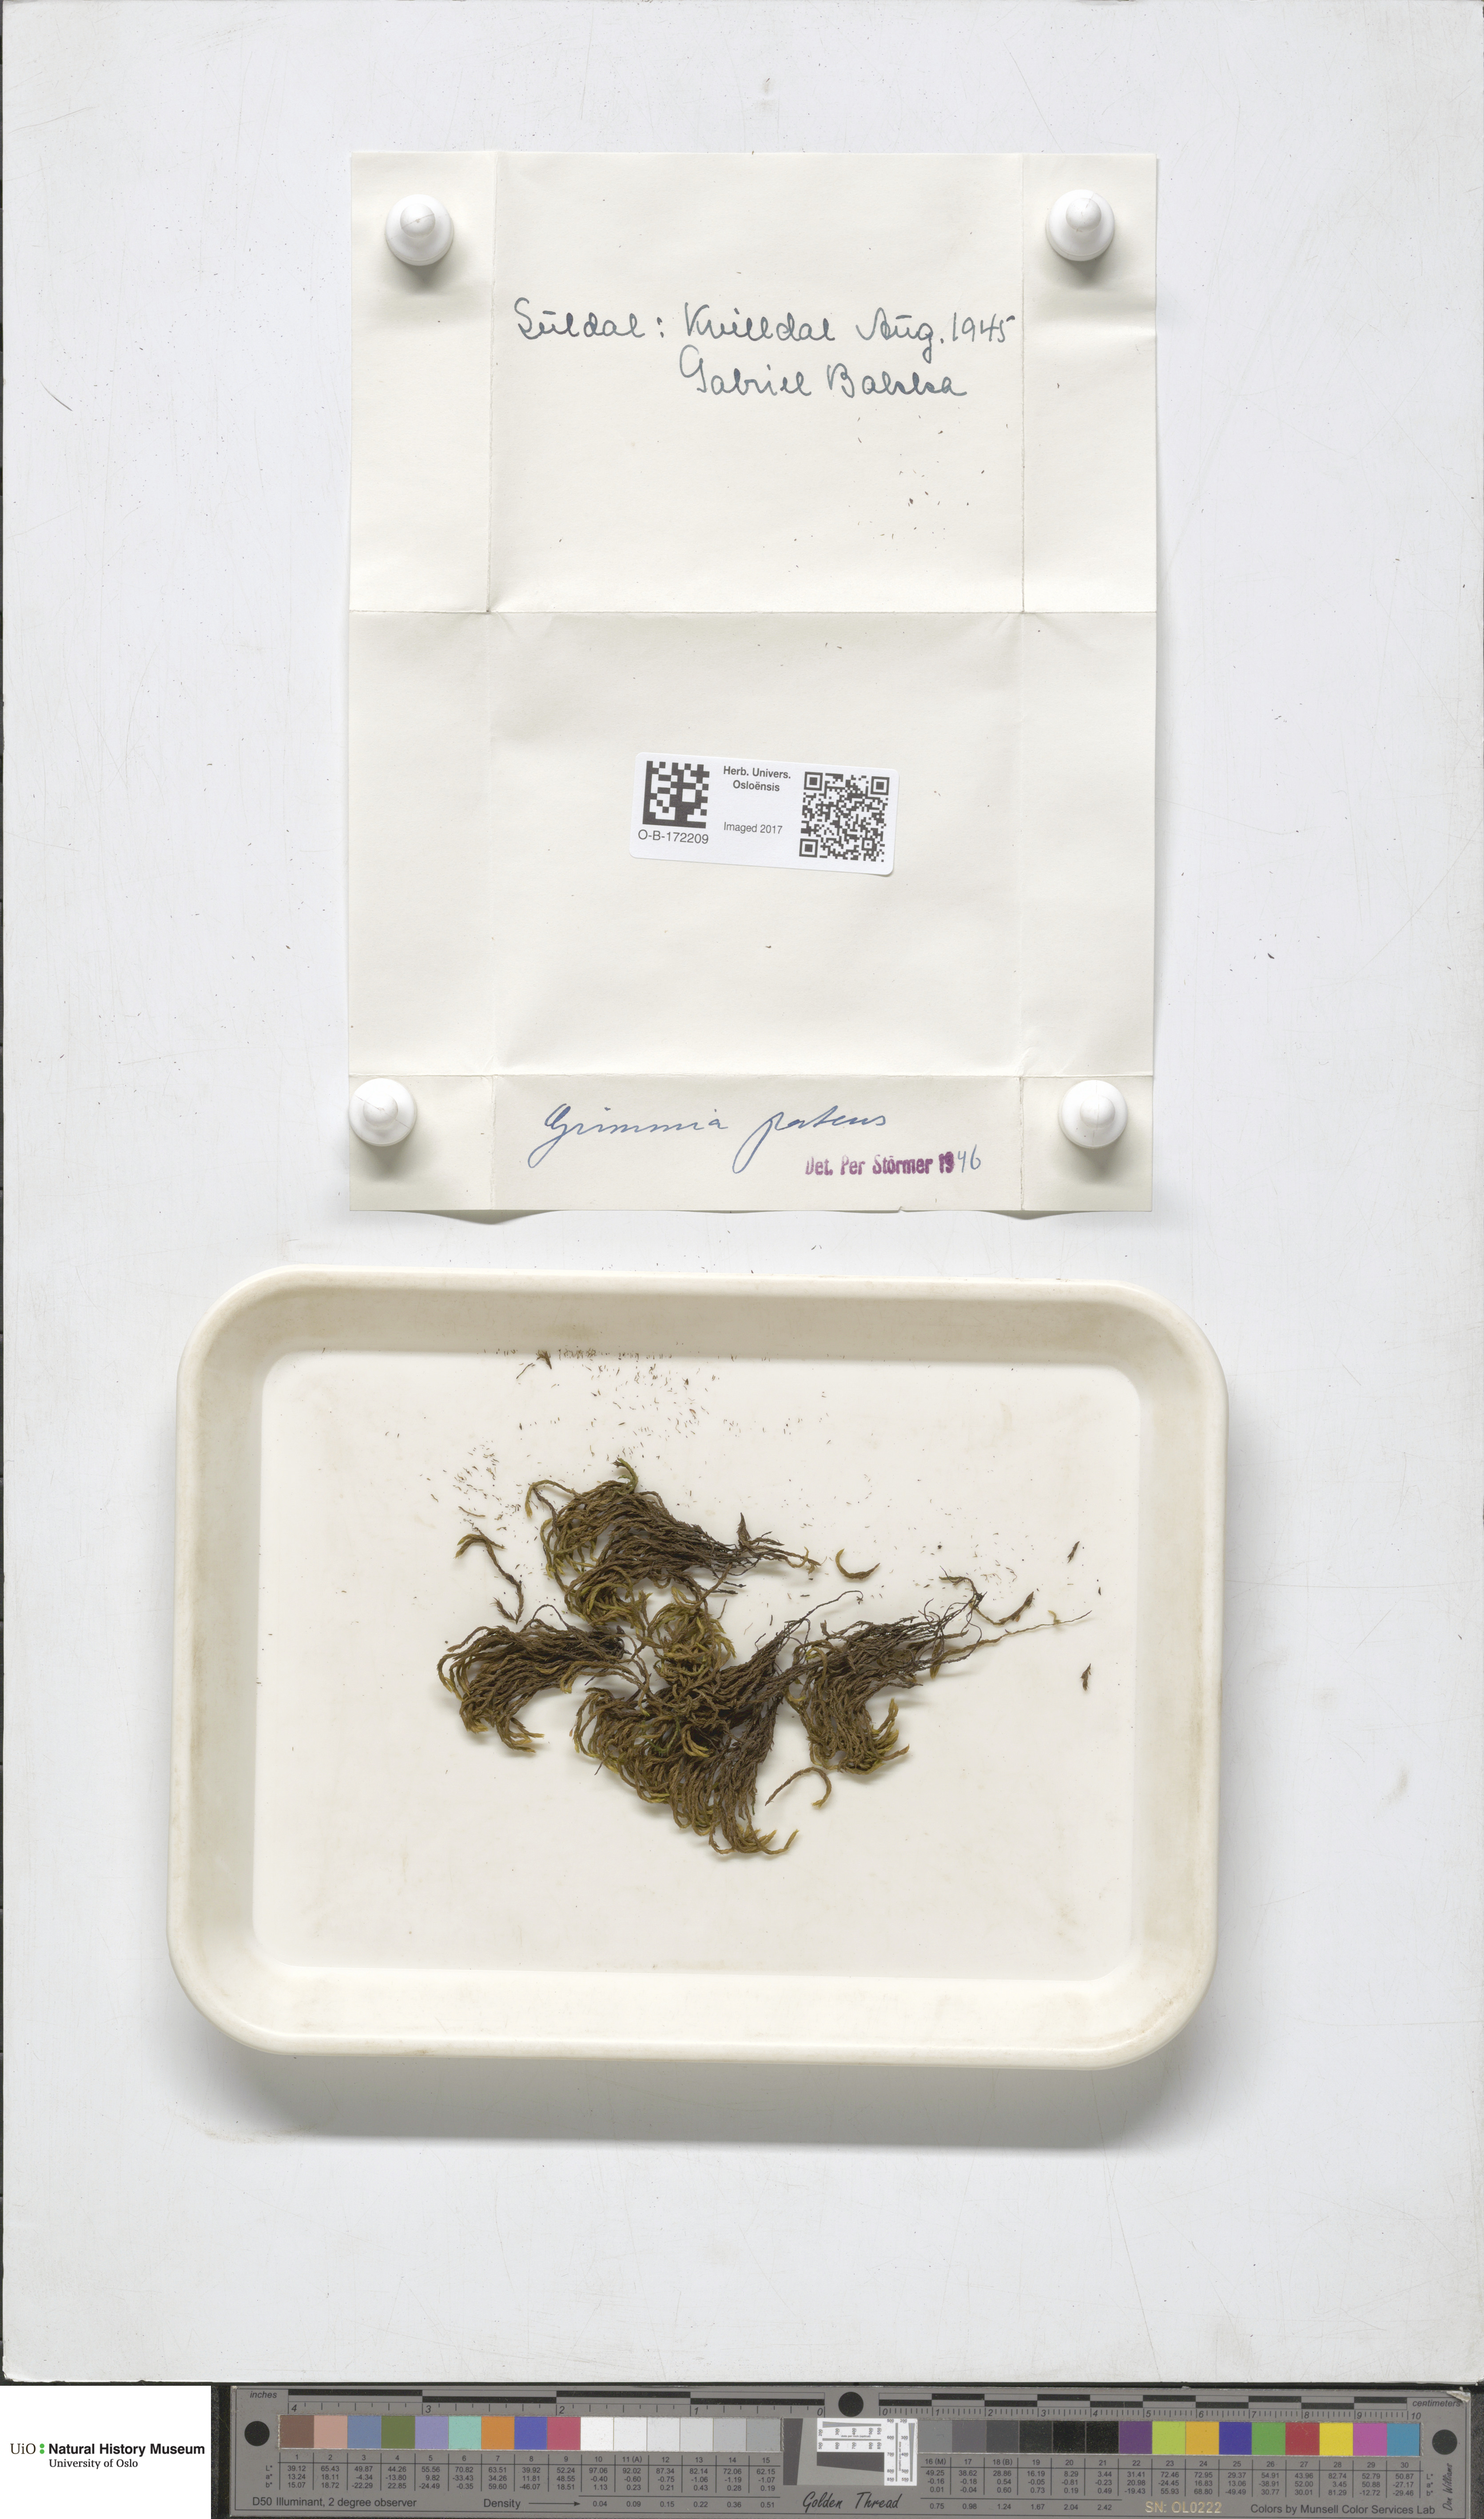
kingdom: Plantae
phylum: Bryophyta
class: Bryopsida
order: Grimmiales
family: Grimmiaceae
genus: Grimmia
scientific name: Grimmia ramondii
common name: Spreading-leaved grimmia
